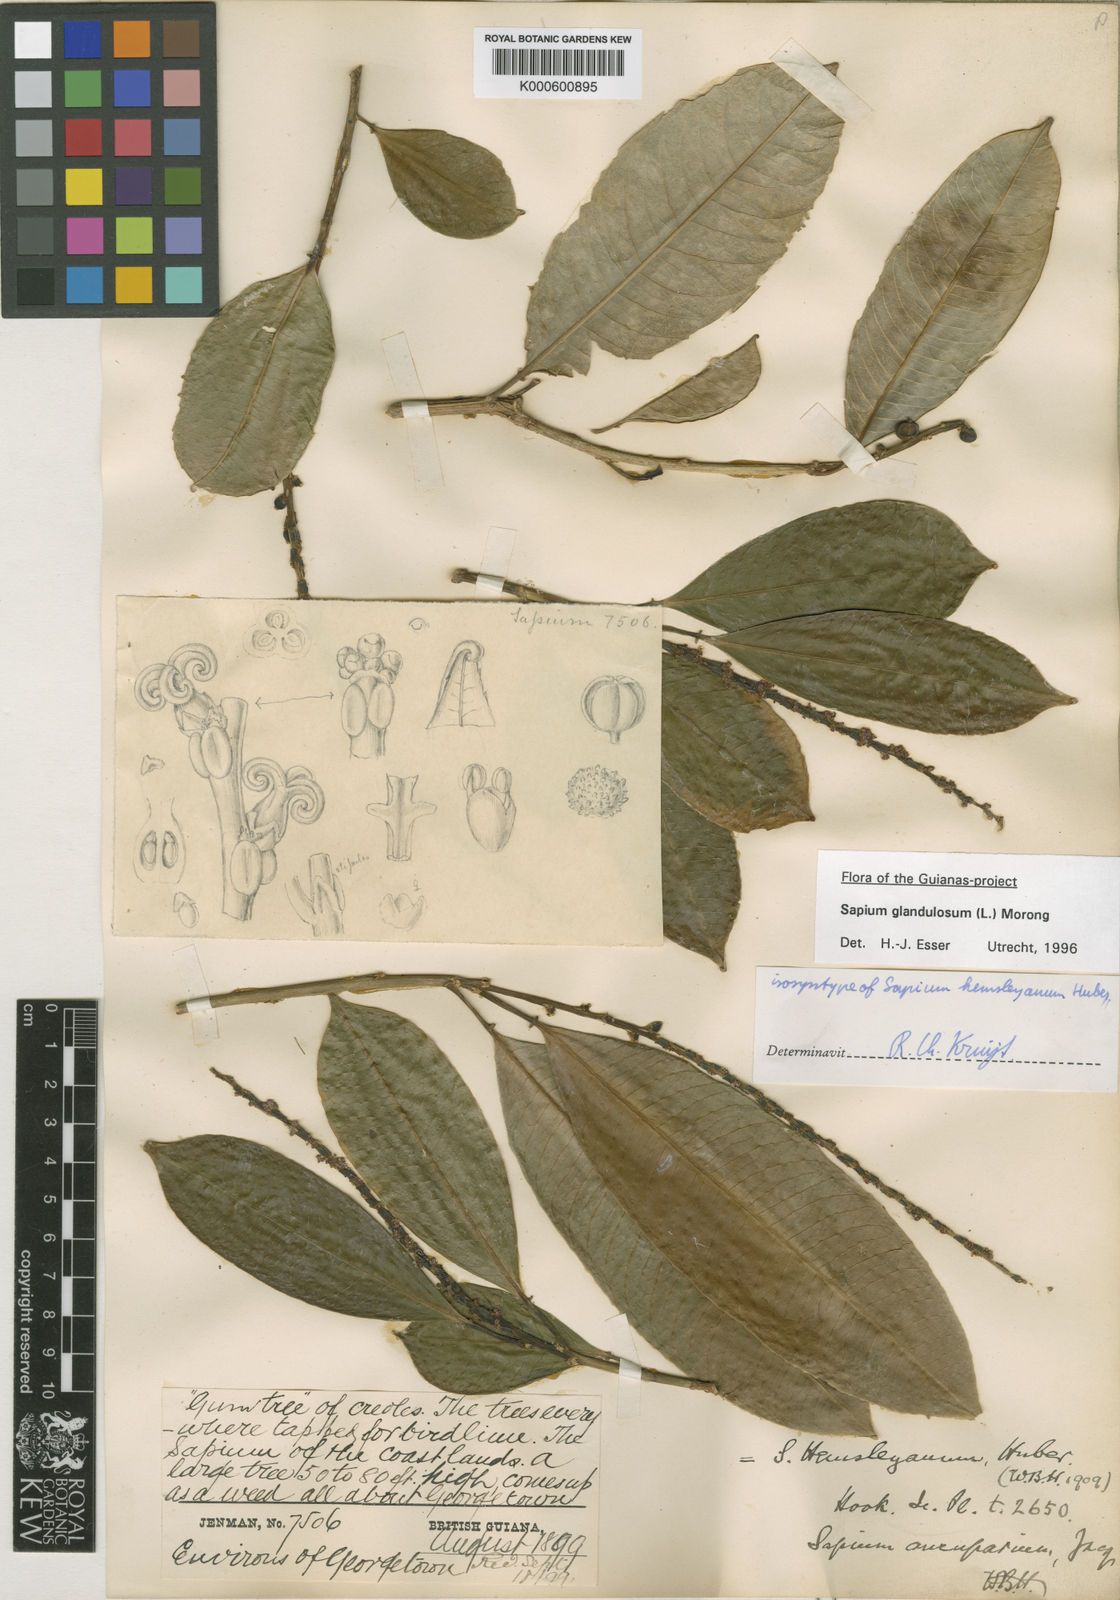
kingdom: Plantae
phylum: Tracheophyta
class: Magnoliopsida
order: Malpighiales
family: Euphorbiaceae
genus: Sapium
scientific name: Sapium glandulosum
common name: Milktree
